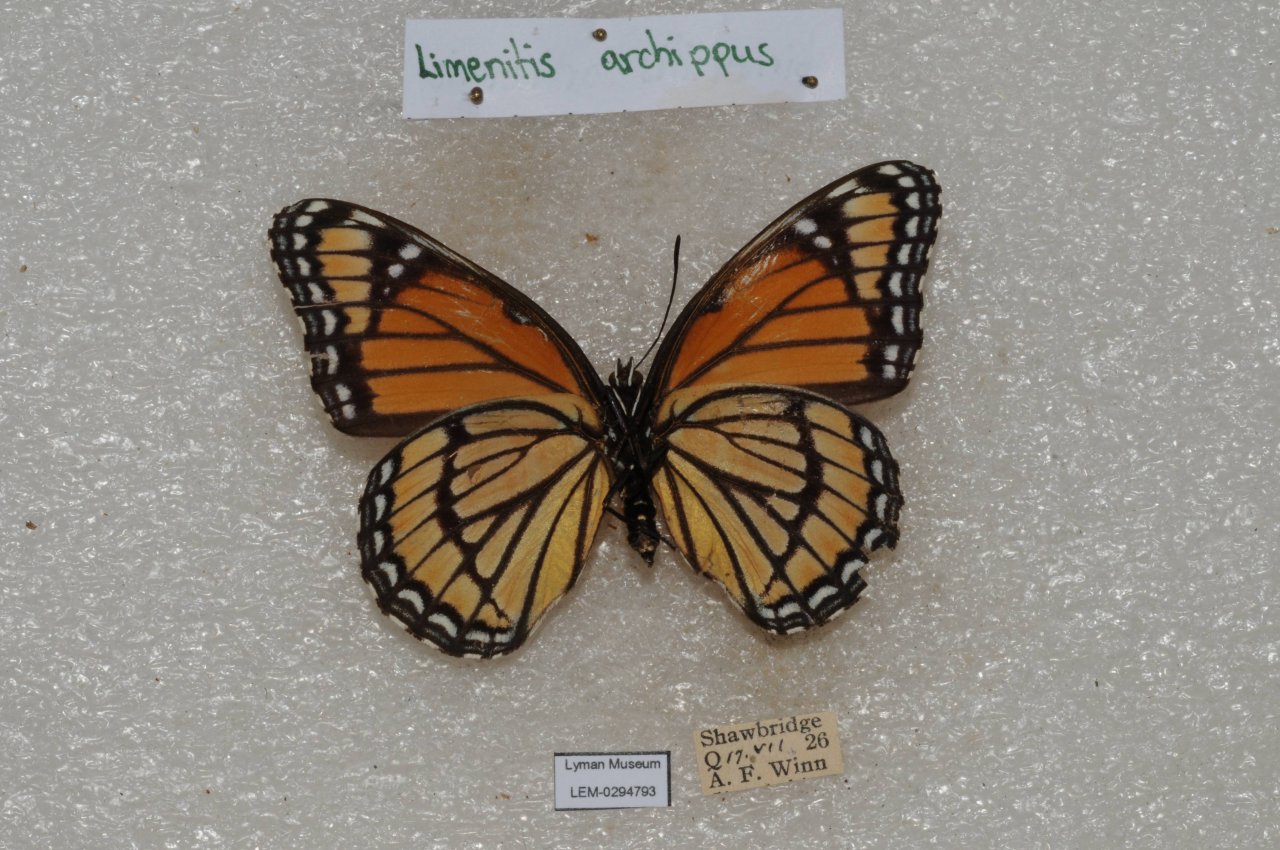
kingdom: Animalia
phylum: Arthropoda
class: Insecta
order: Lepidoptera
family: Nymphalidae
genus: Limenitis
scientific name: Limenitis archippus
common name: Viceroy
